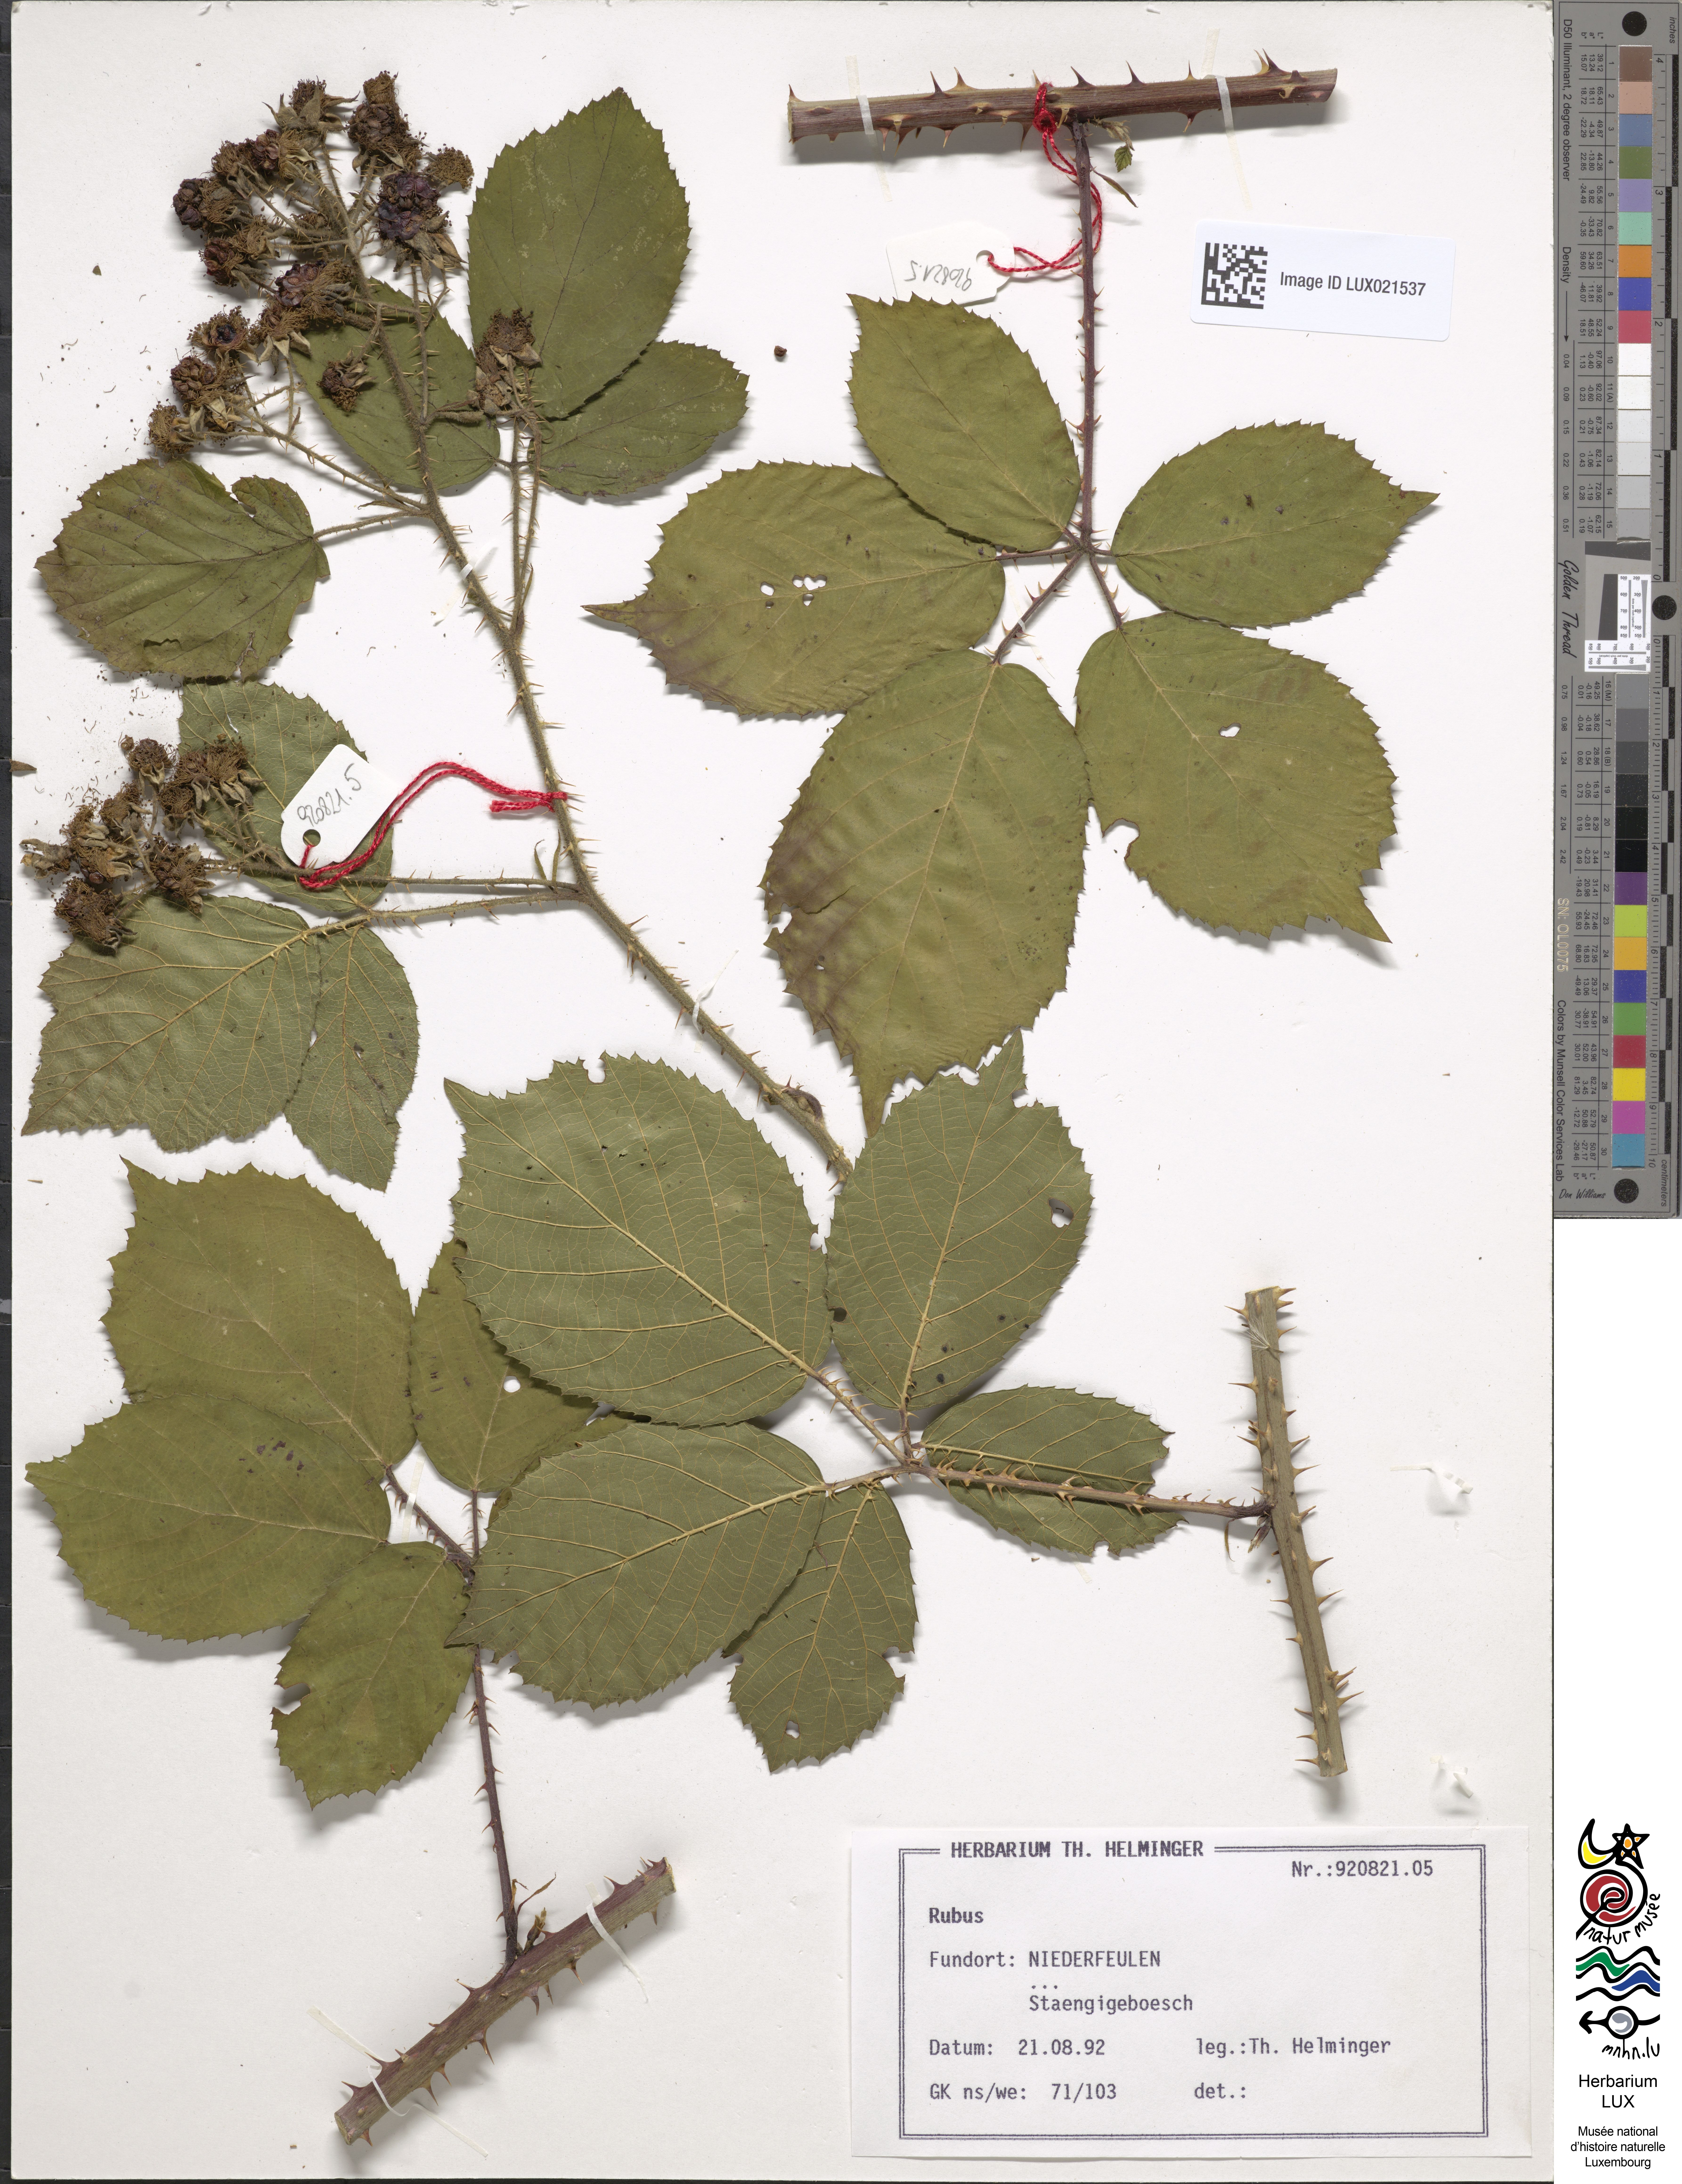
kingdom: Plantae
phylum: Tracheophyta
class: Magnoliopsida
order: Rosales
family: Rosaceae
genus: Rubus
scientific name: Rubus
